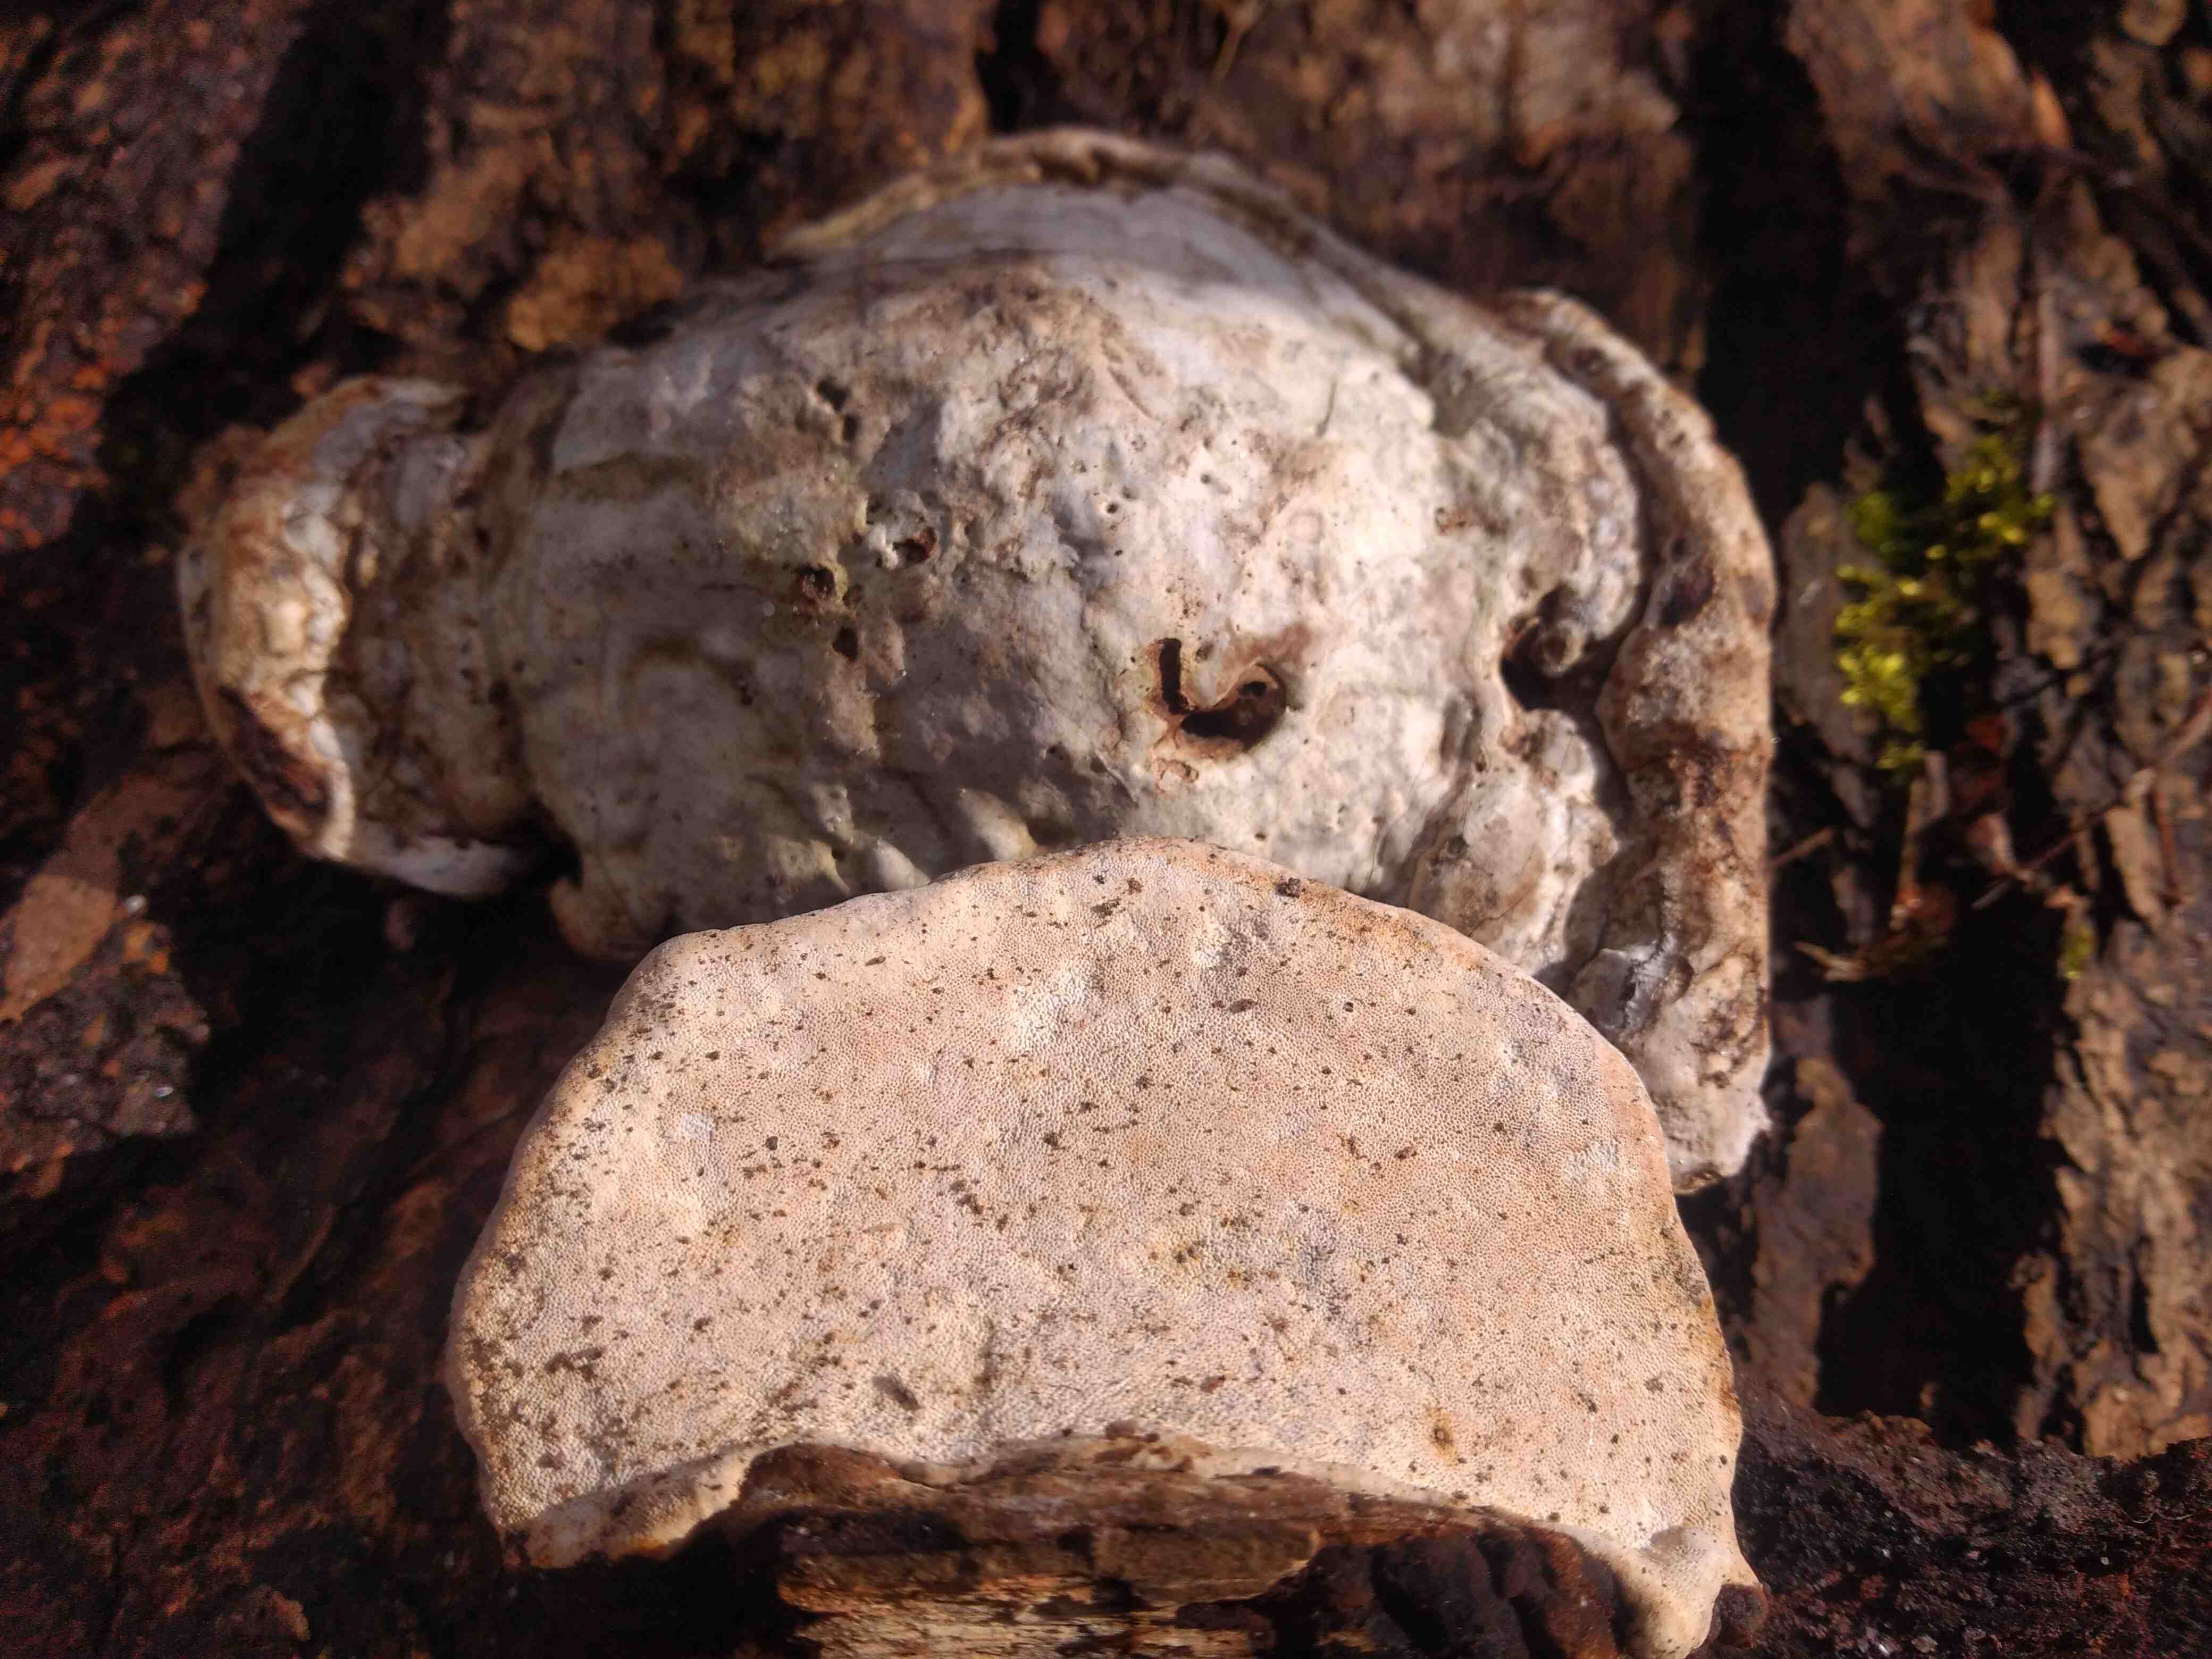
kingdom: Fungi
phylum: Basidiomycota
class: Agaricomycetes
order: Polyporales
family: Polyporaceae
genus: Fomes
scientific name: Fomes fomentarius
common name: tøndersvamp
